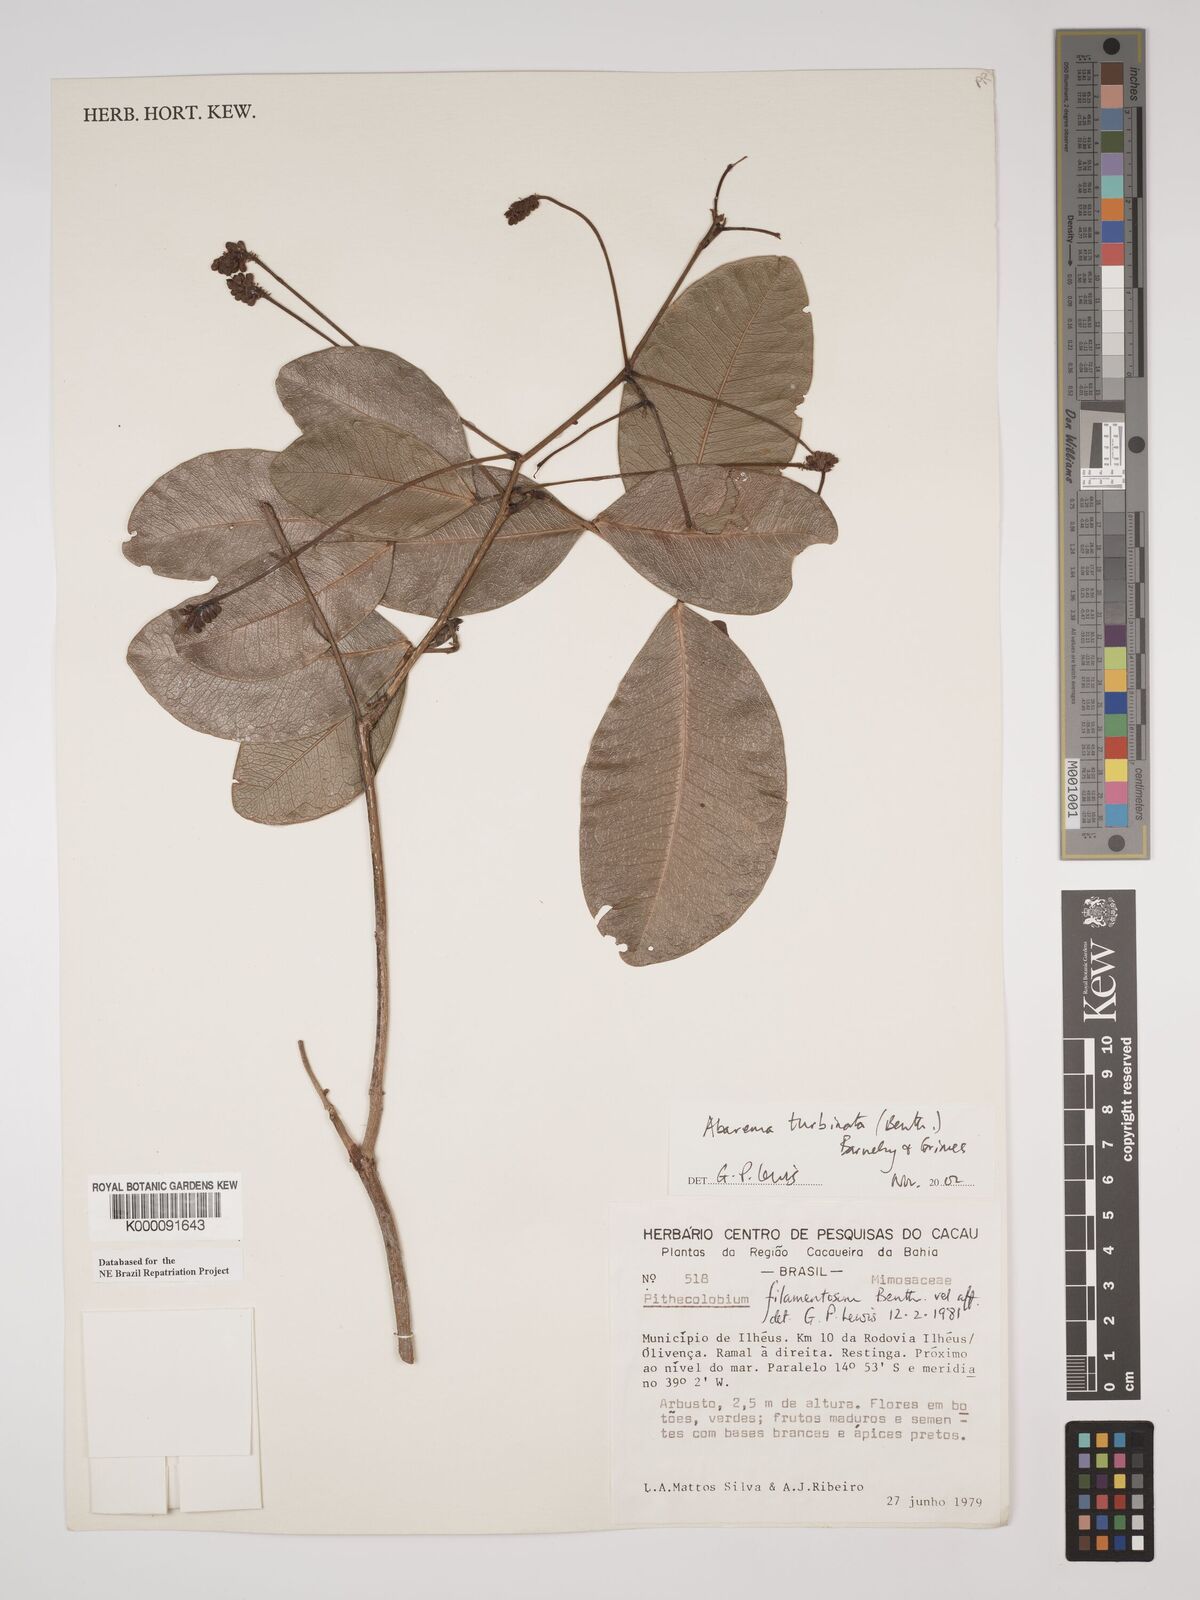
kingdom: Plantae
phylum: Tracheophyta
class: Magnoliopsida
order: Fabales
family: Fabaceae
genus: Jupunba
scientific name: Jupunba turbinata
